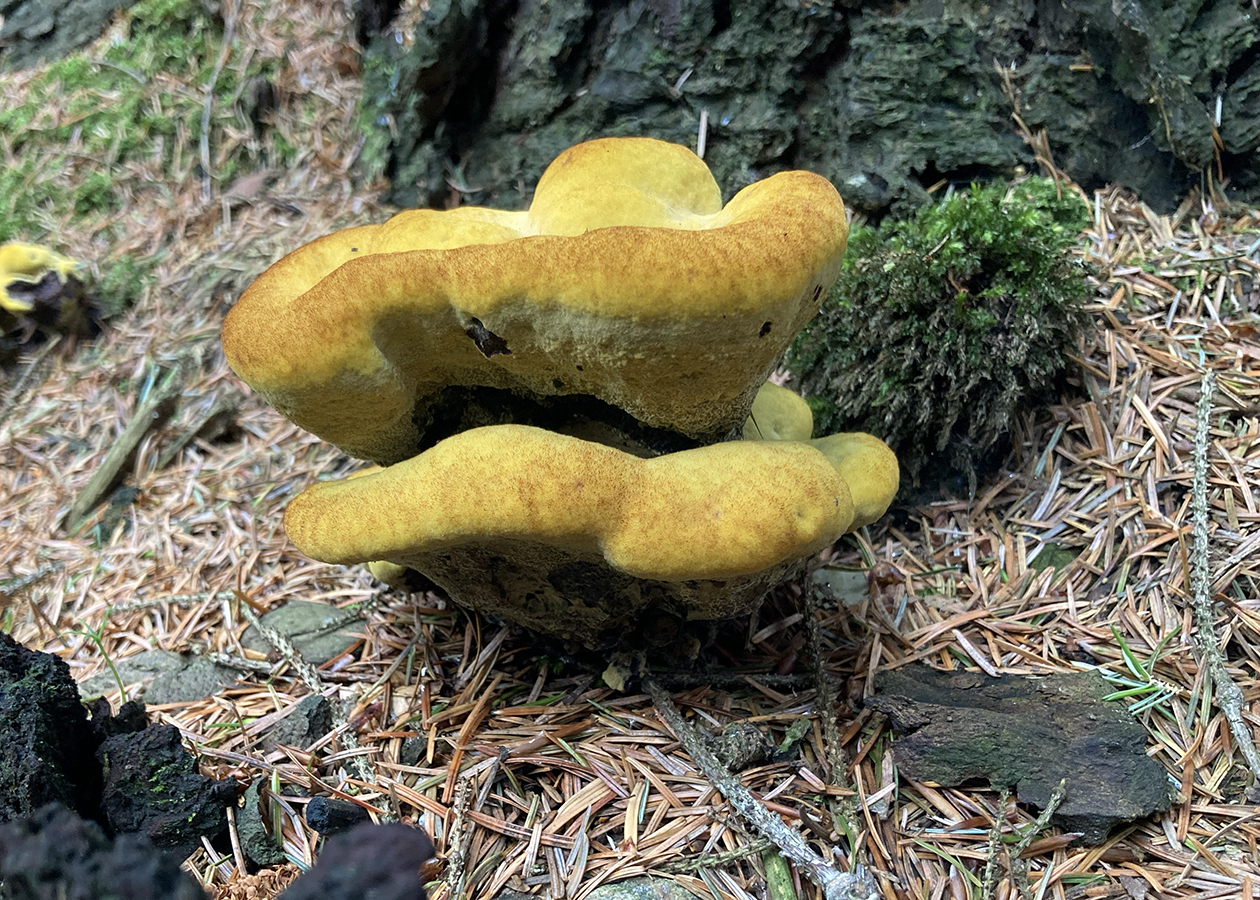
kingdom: Fungi
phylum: Basidiomycota
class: Agaricomycetes
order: Polyporales
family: Laetiporaceae
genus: Phaeolus
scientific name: Phaeolus schweinitzii
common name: brunporesvamp
